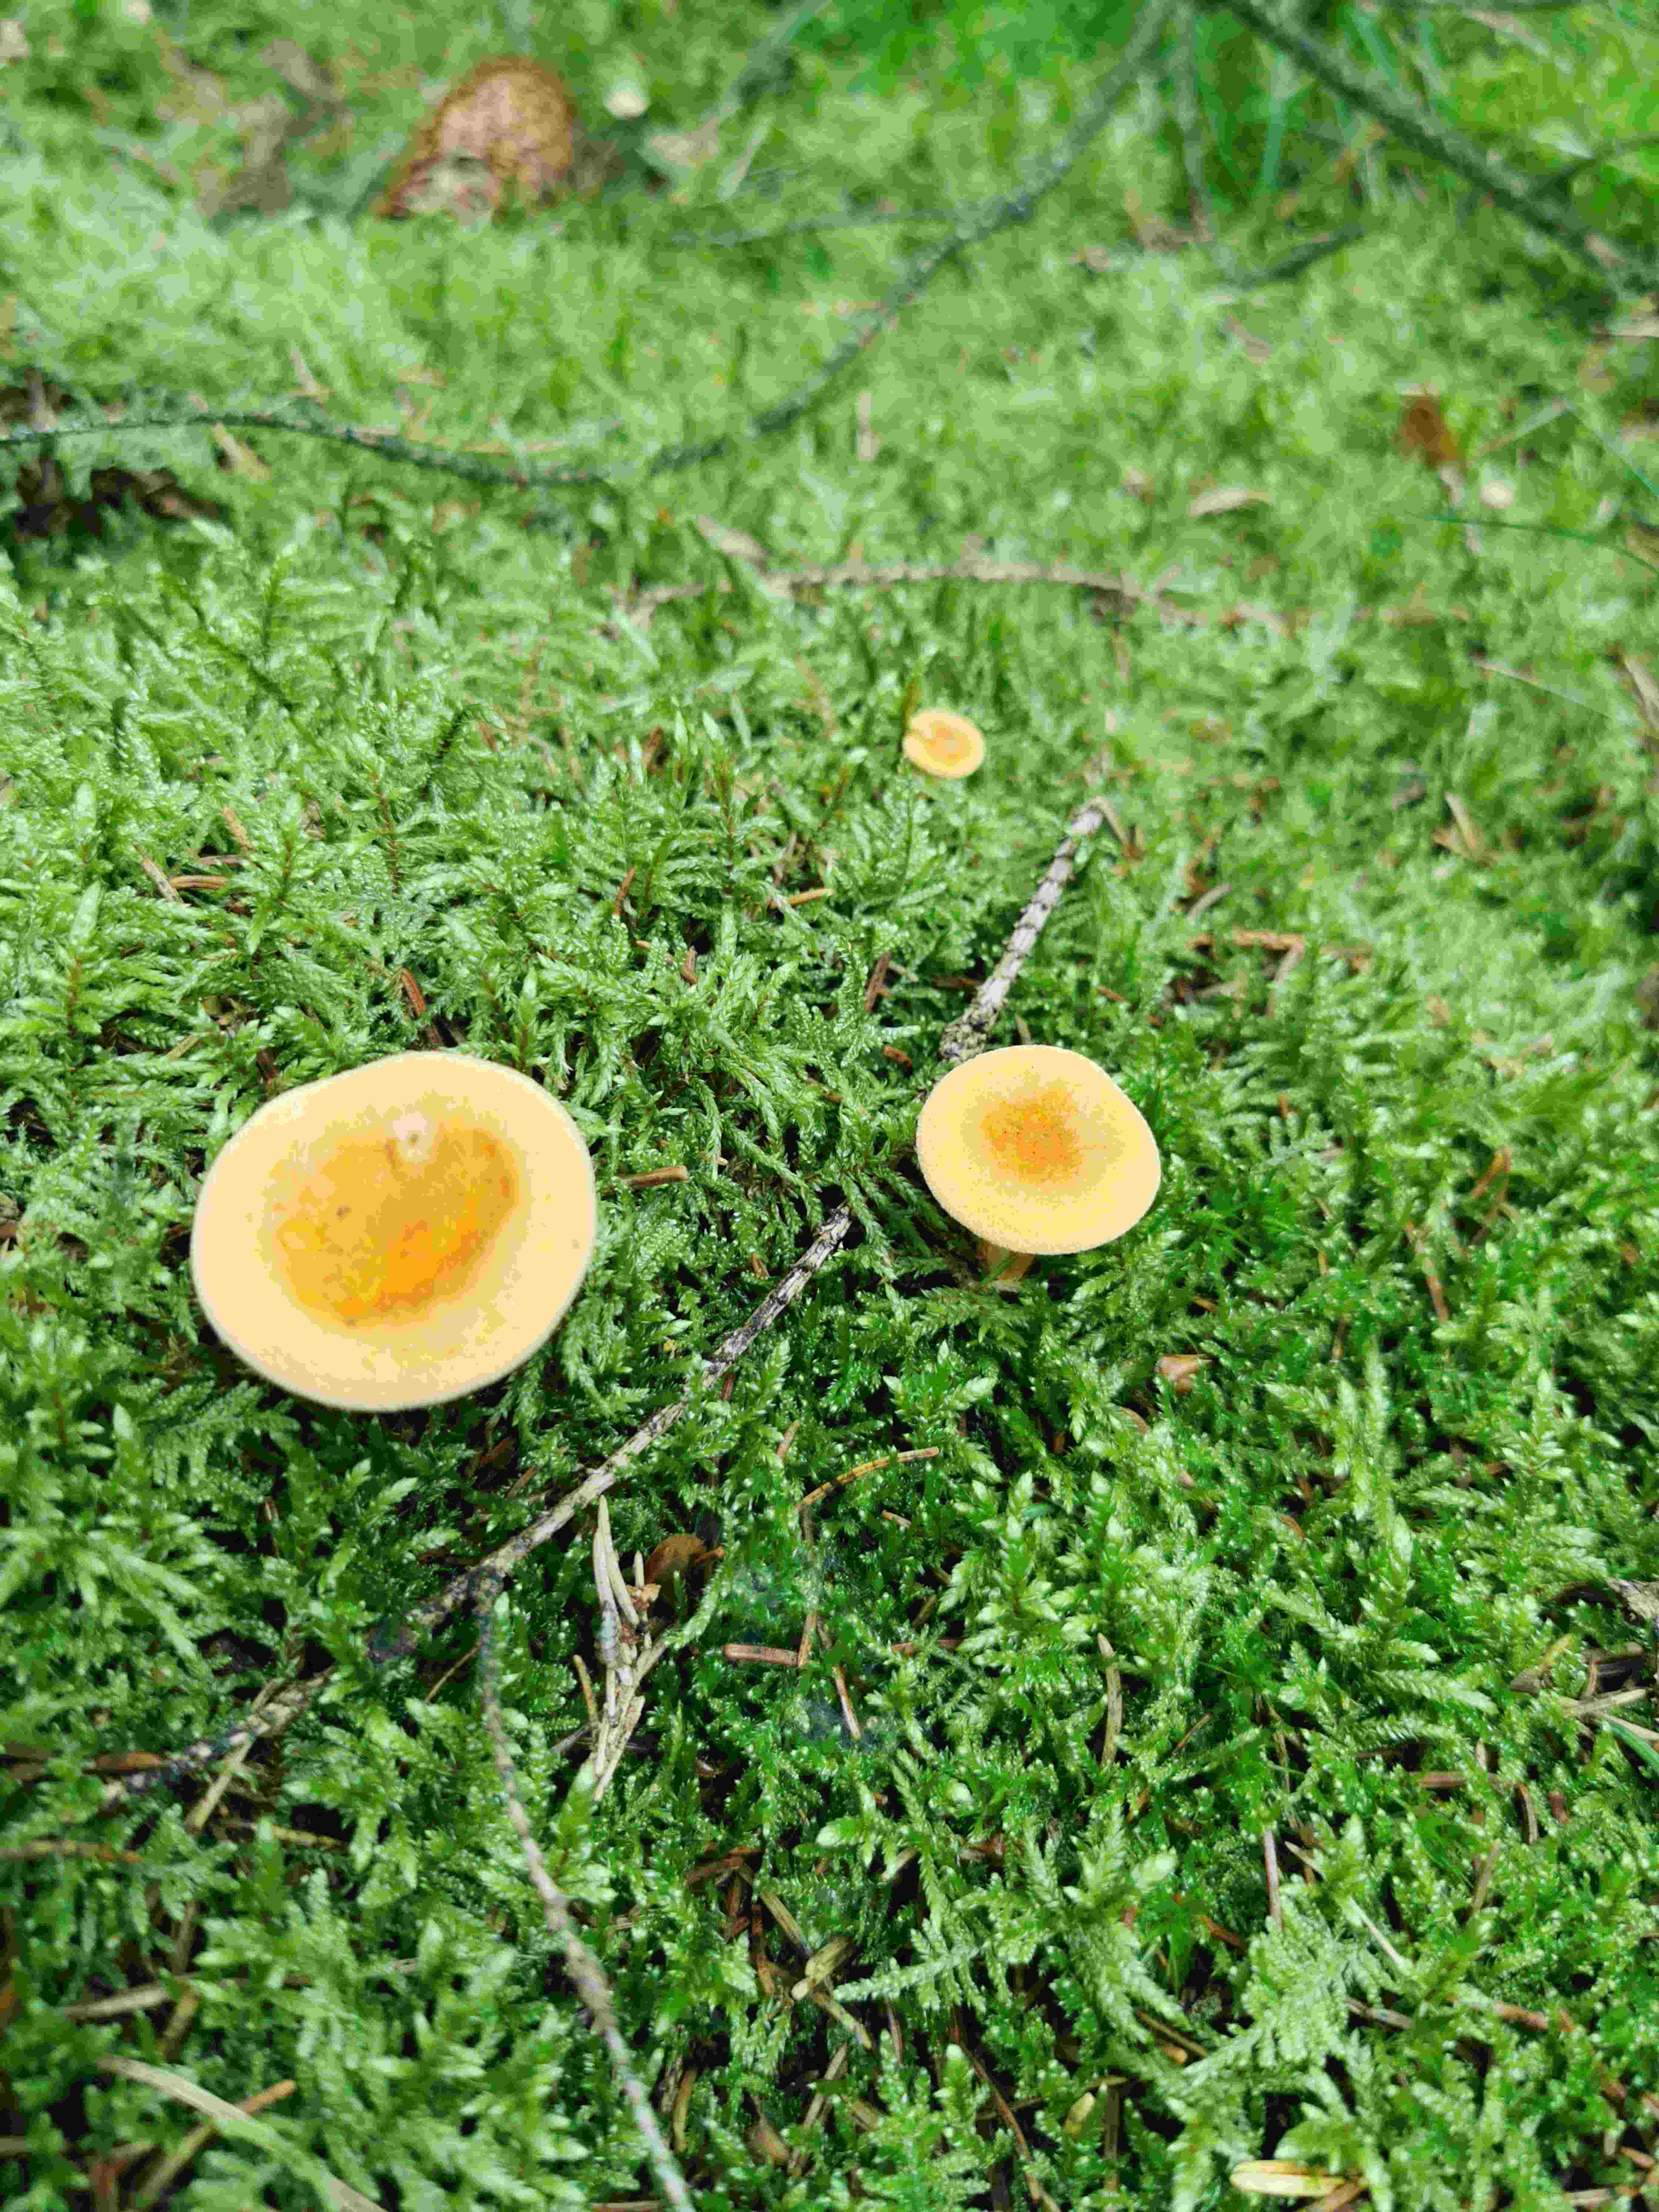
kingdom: Fungi
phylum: Basidiomycota
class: Agaricomycetes
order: Boletales
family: Hygrophoropsidaceae
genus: Hygrophoropsis
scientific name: Hygrophoropsis aurantiaca
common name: almindelig orangekantarel
